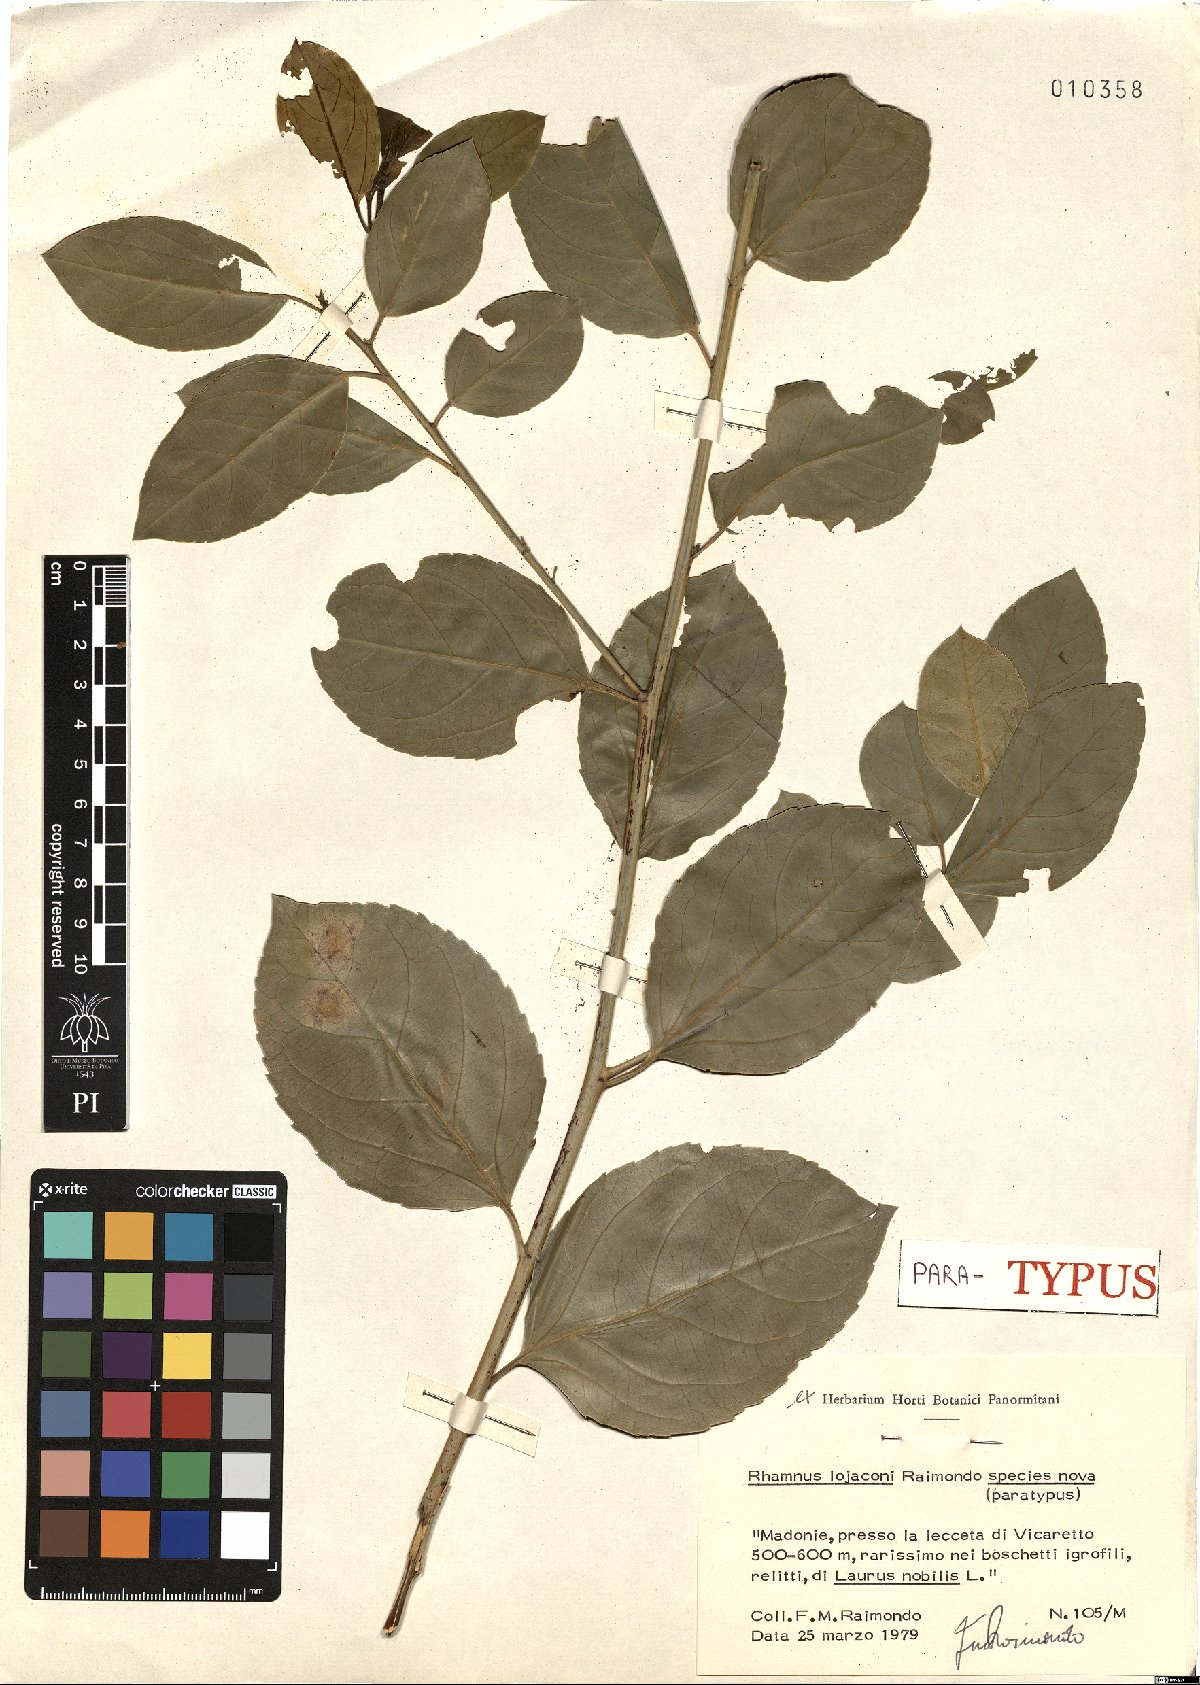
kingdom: Plantae
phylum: Tracheophyta
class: Magnoliopsida
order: Rosales
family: Rhamnaceae
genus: Rhamnus
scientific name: Rhamnus lojaconoi
